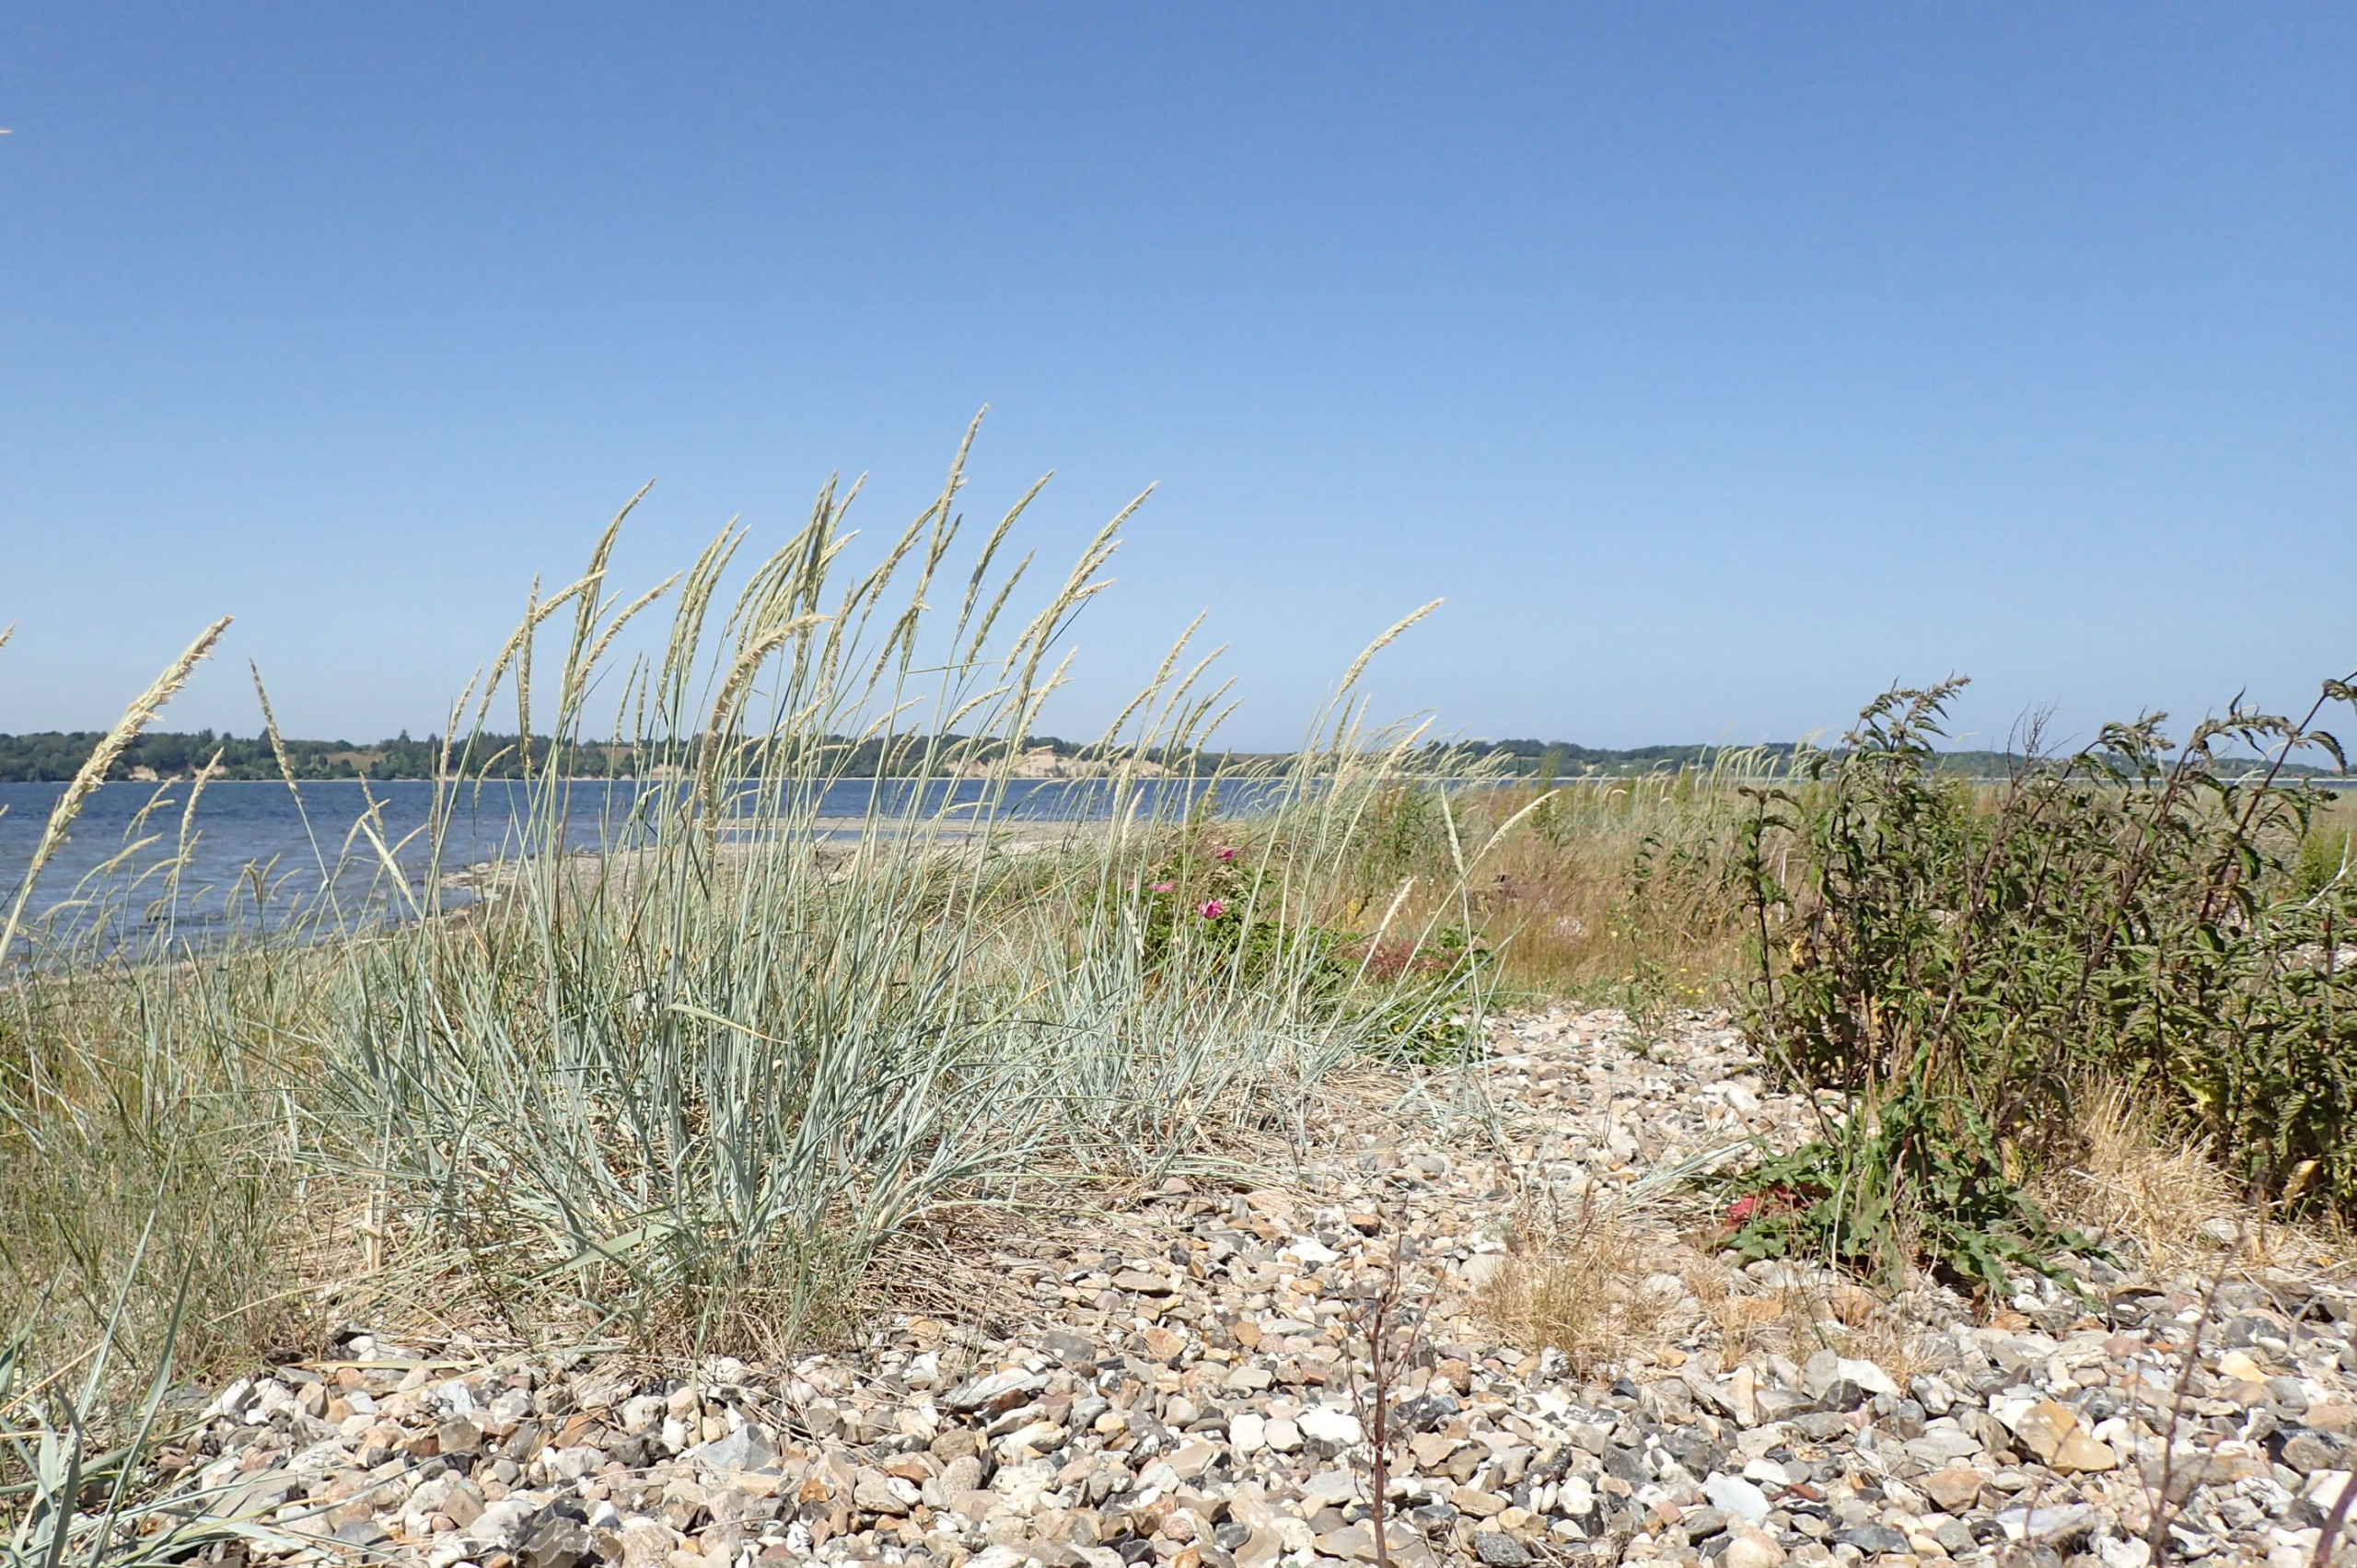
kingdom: Plantae
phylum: Tracheophyta
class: Liliopsida
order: Poales
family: Poaceae
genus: Leymus
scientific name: Leymus arenarius
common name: Marehalm
